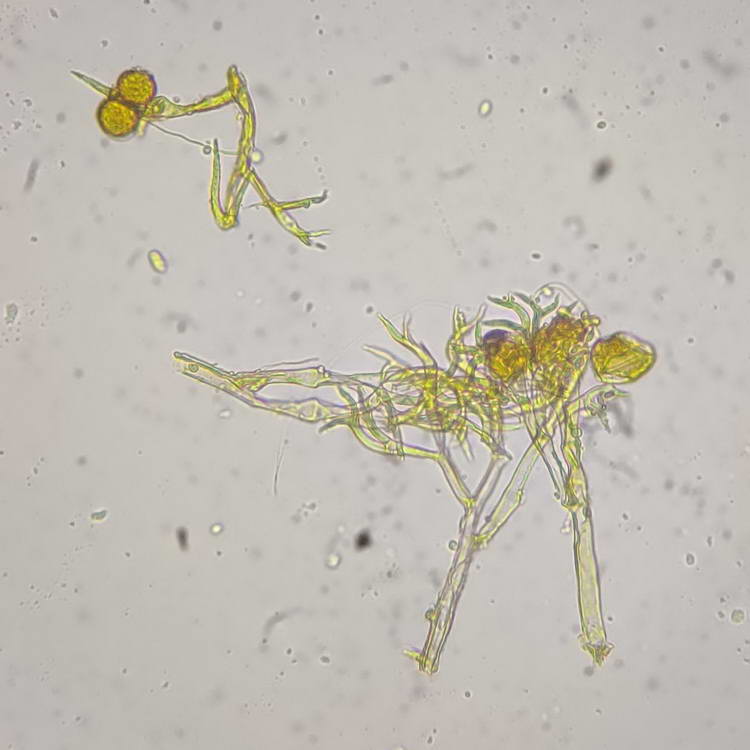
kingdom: Chromista
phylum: Oomycota
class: Peronosporea
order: Peronosporales
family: Peronosporaceae
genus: Peronospora
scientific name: Peronospora bulbocapni
